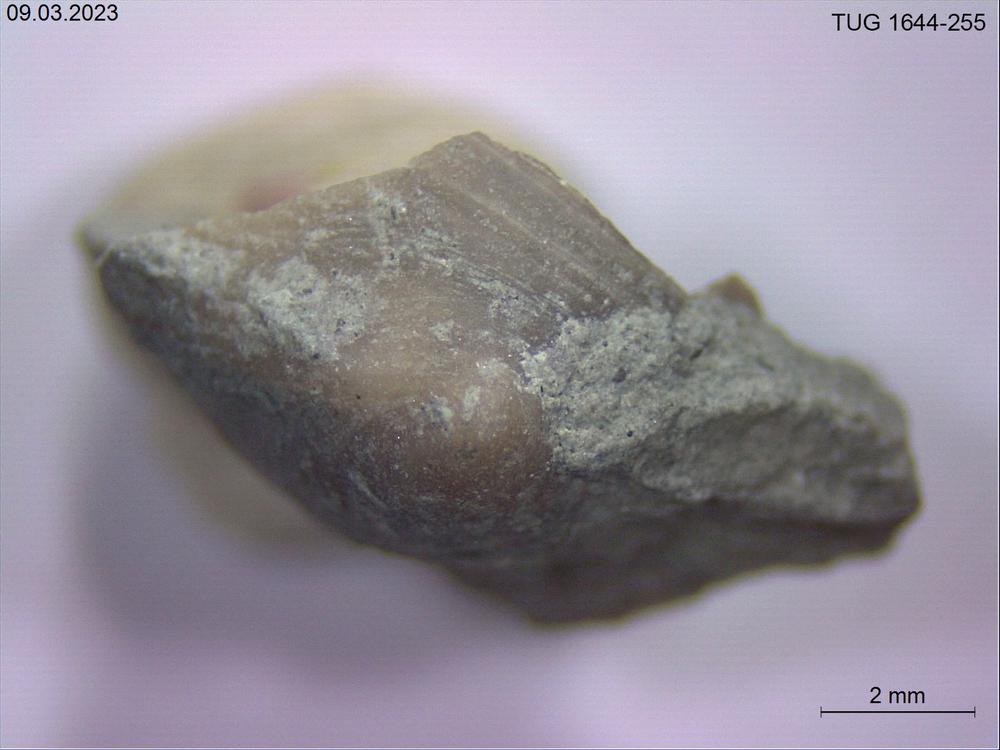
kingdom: Animalia
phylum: Mollusca
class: Monoplacophora
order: Tryblidiida
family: Tryblidiidae
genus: Pilina
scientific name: Pilina
